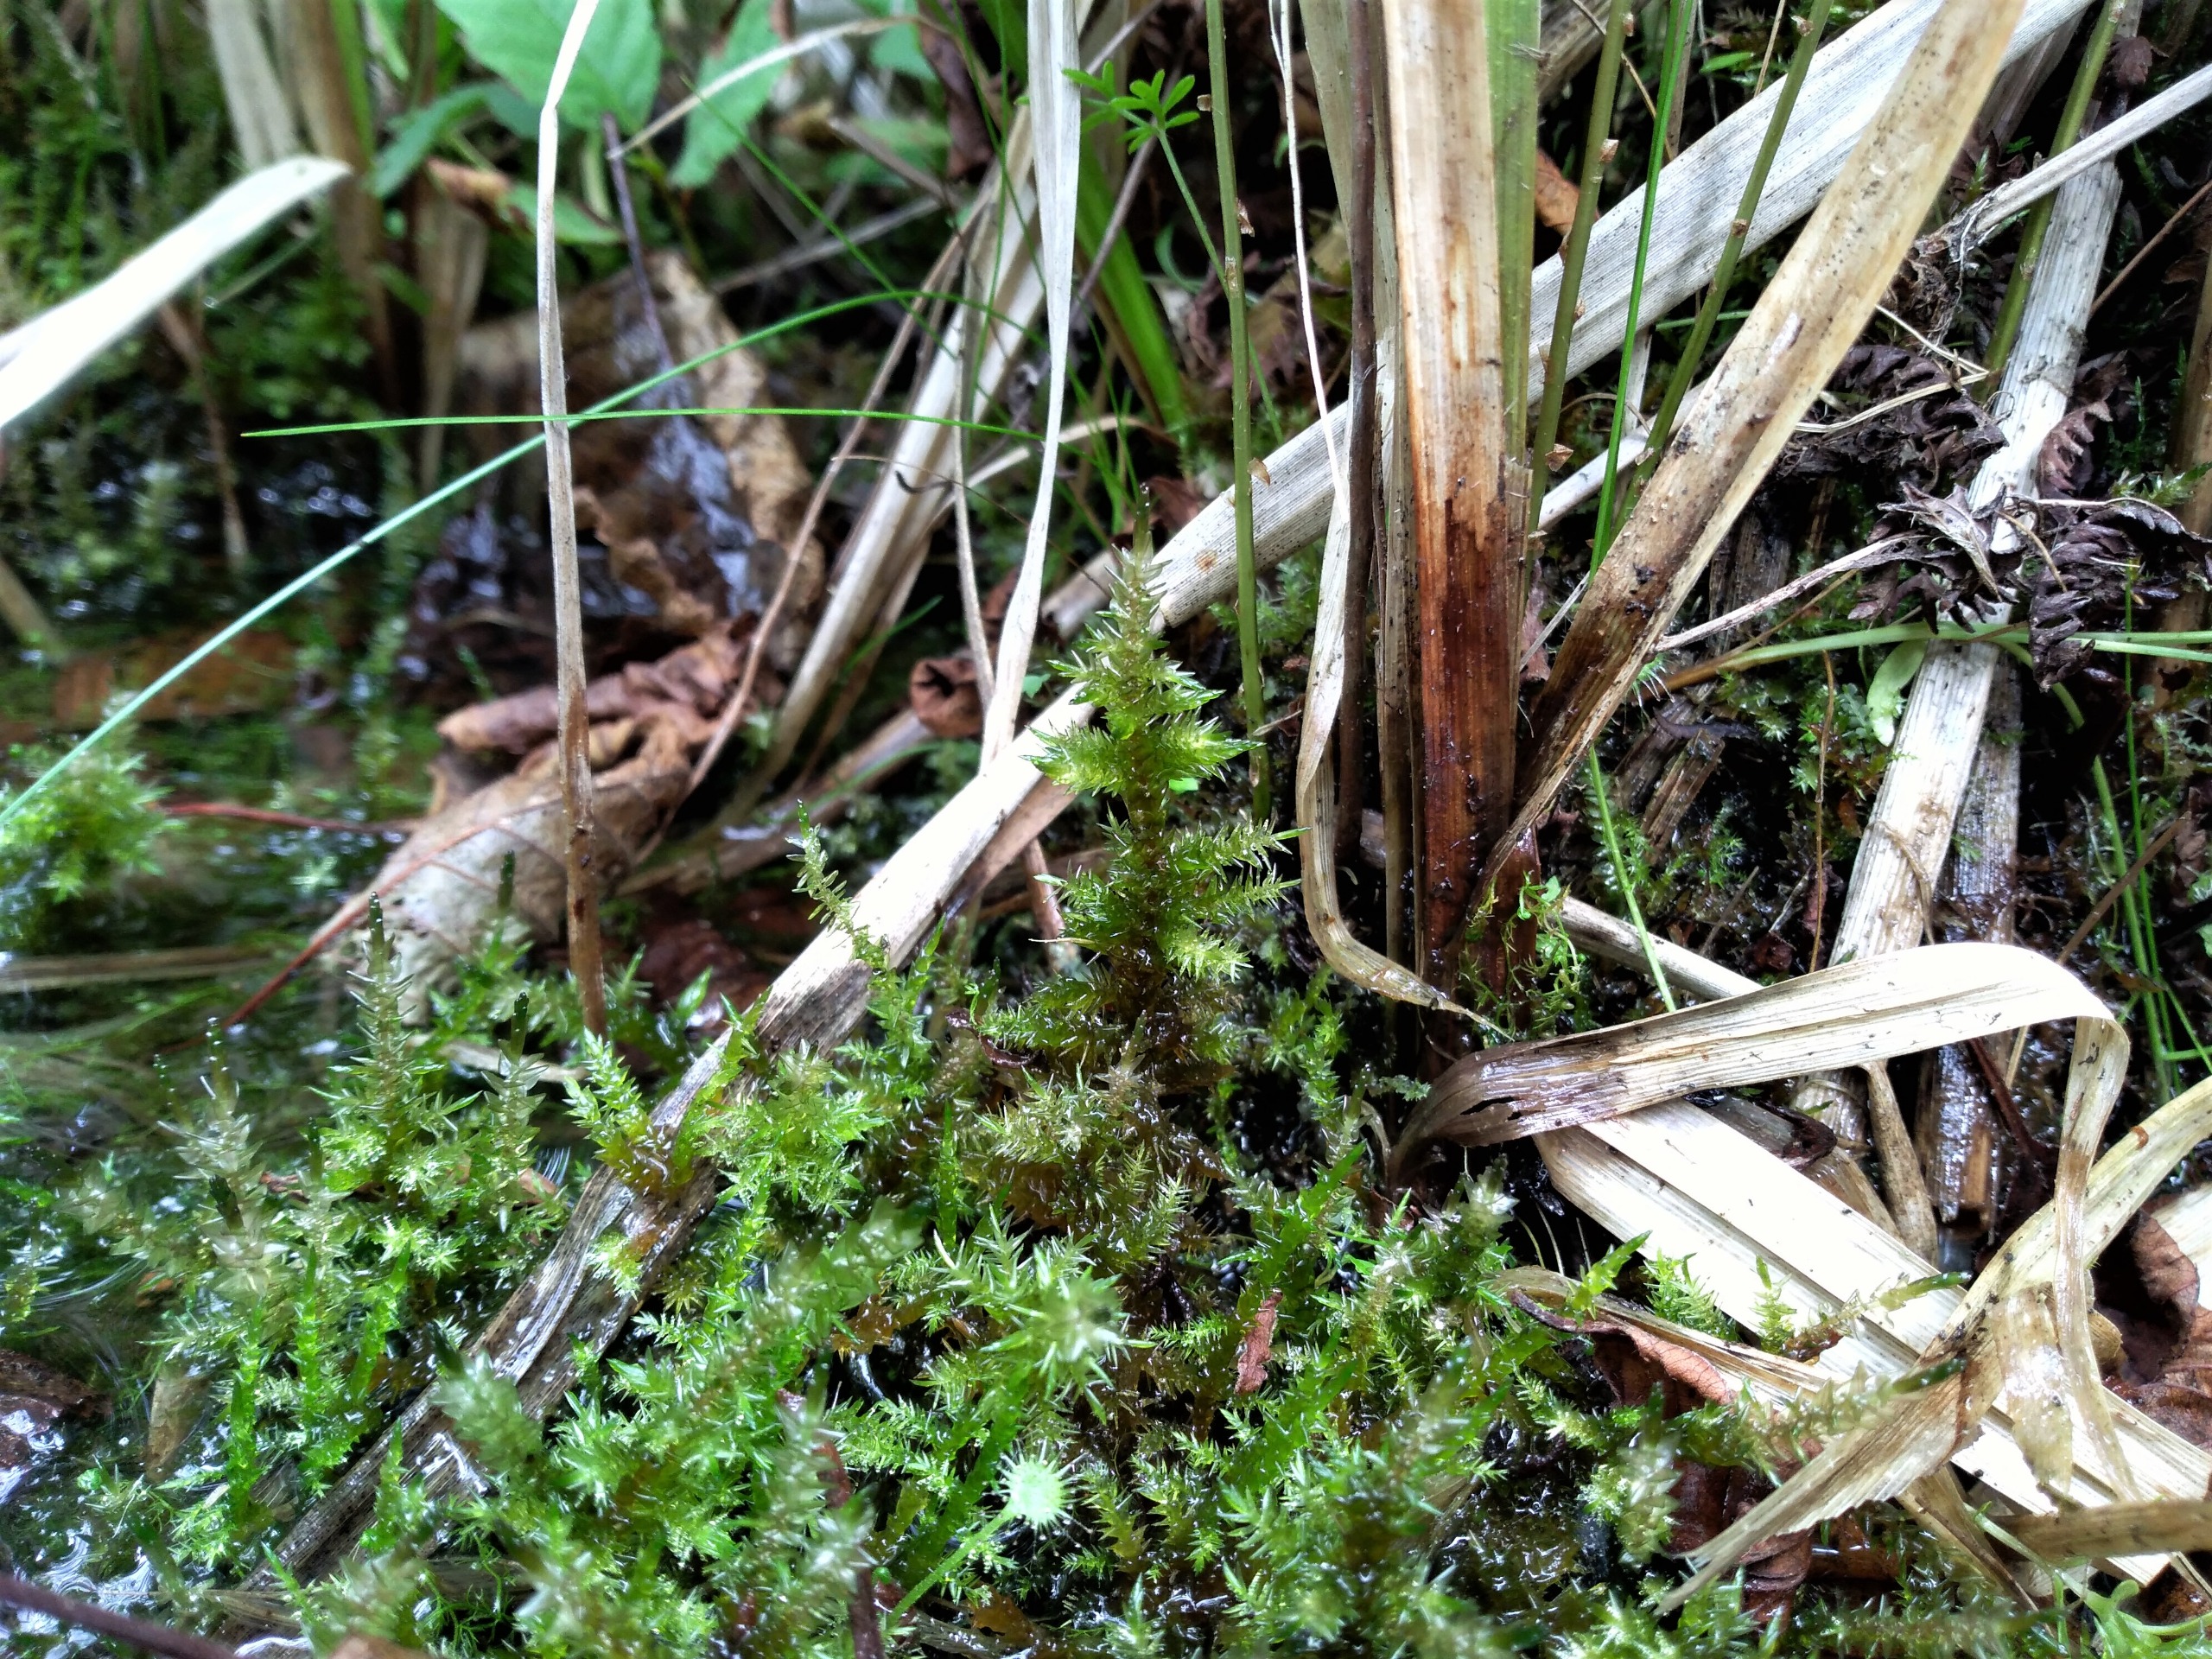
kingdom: Plantae
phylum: Bryophyta
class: Bryopsida
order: Hypnales
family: Calliergonaceae
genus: Calliergon
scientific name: Calliergon giganteum
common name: Stor skebladsmos
